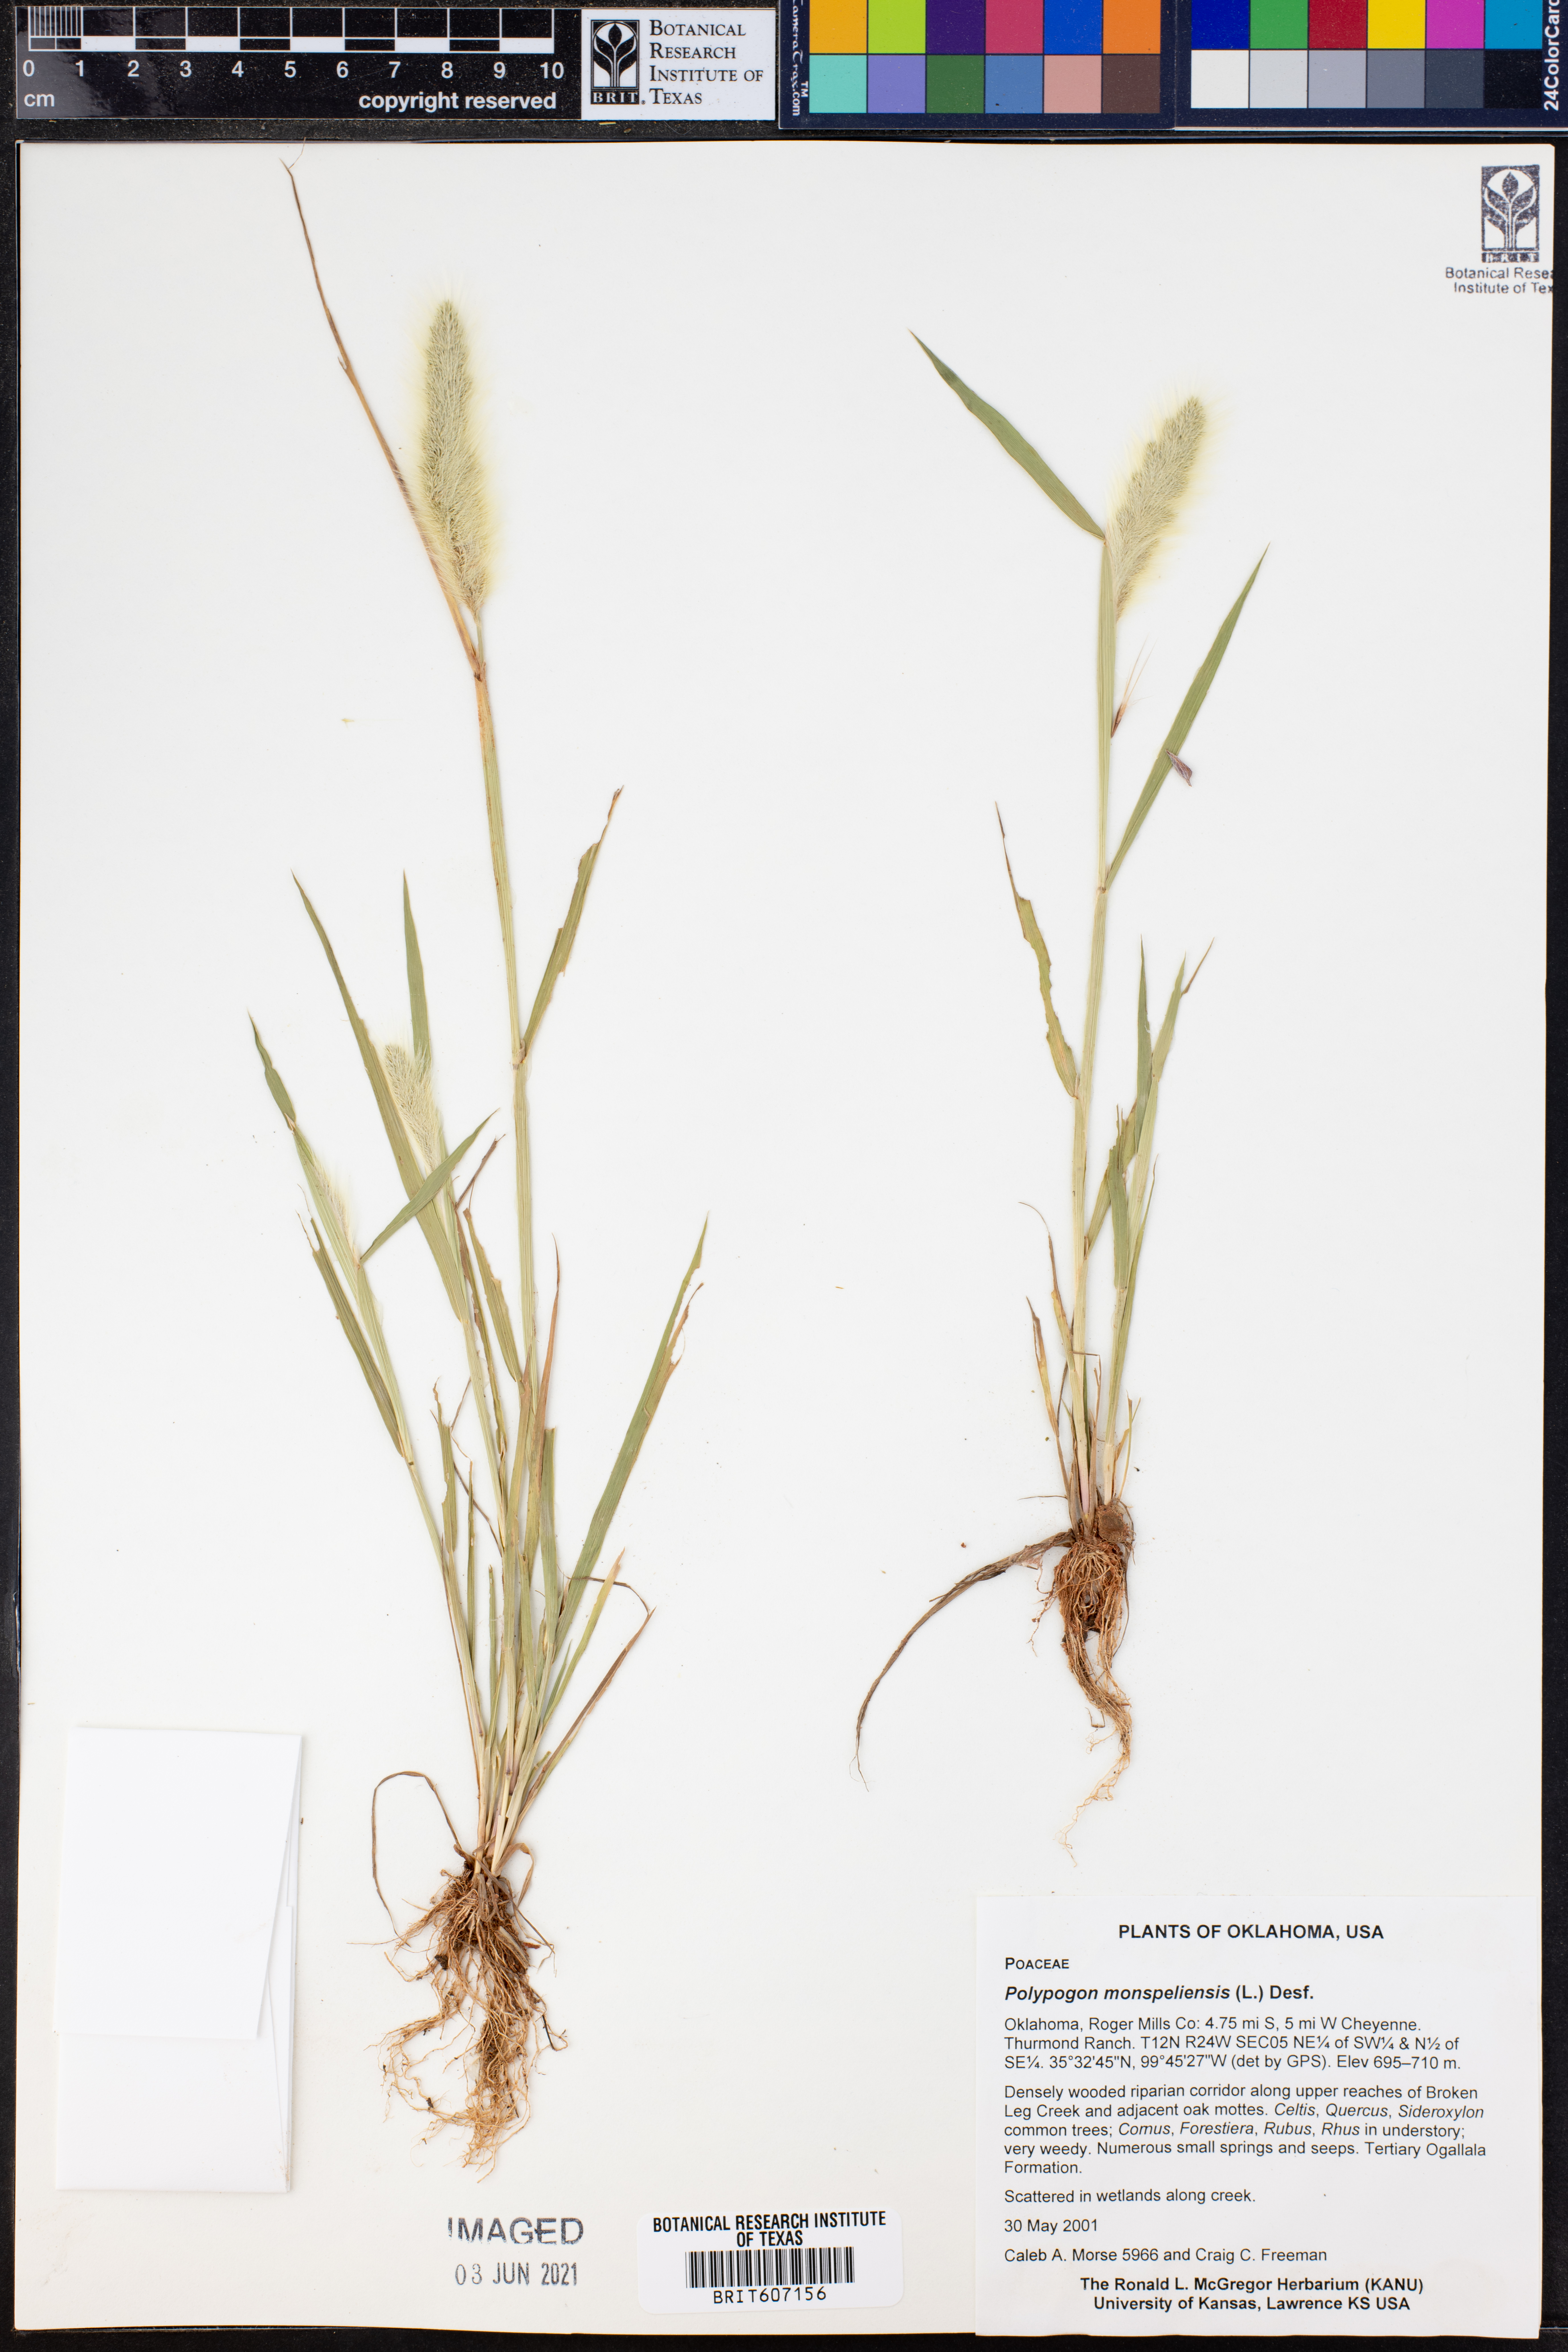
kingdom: Plantae
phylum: Tracheophyta
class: Liliopsida
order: Poales
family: Poaceae
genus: Polypogon
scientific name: Polypogon monspeliensis
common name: Annual rabbitsfoot grass
